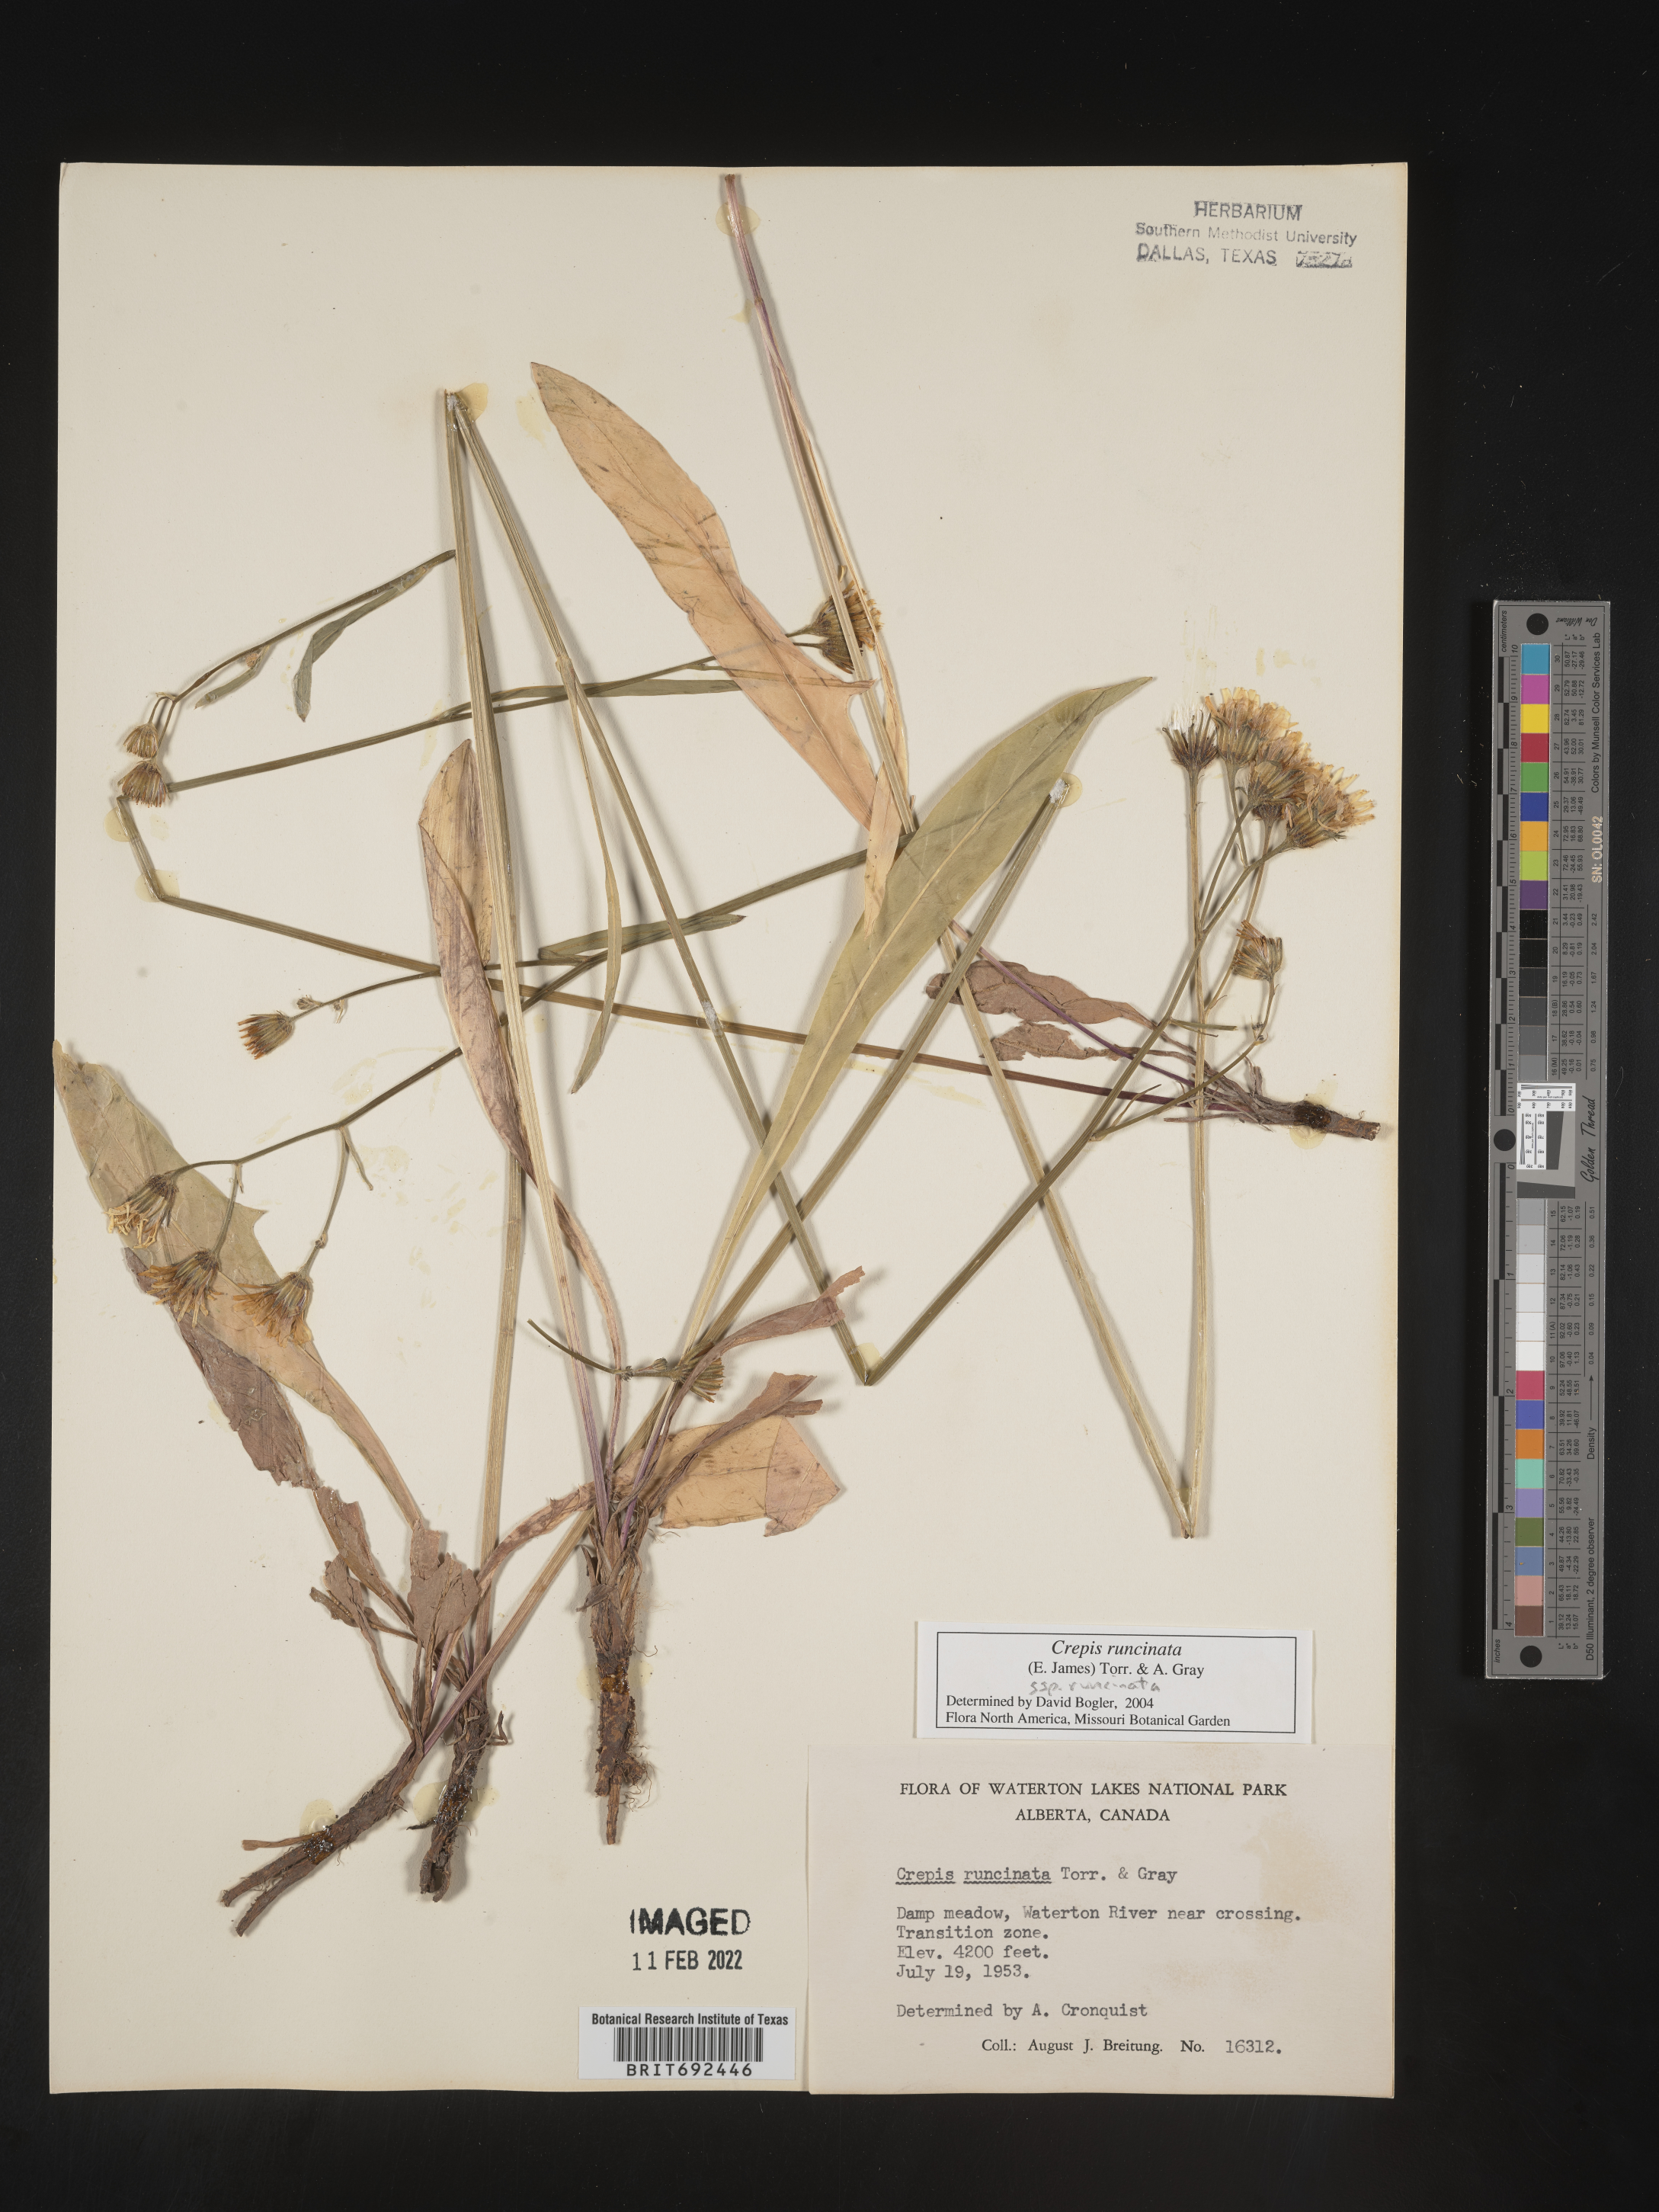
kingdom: Plantae
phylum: Tracheophyta
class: Magnoliopsida
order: Asterales
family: Asteraceae
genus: Crepis
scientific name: Crepis
